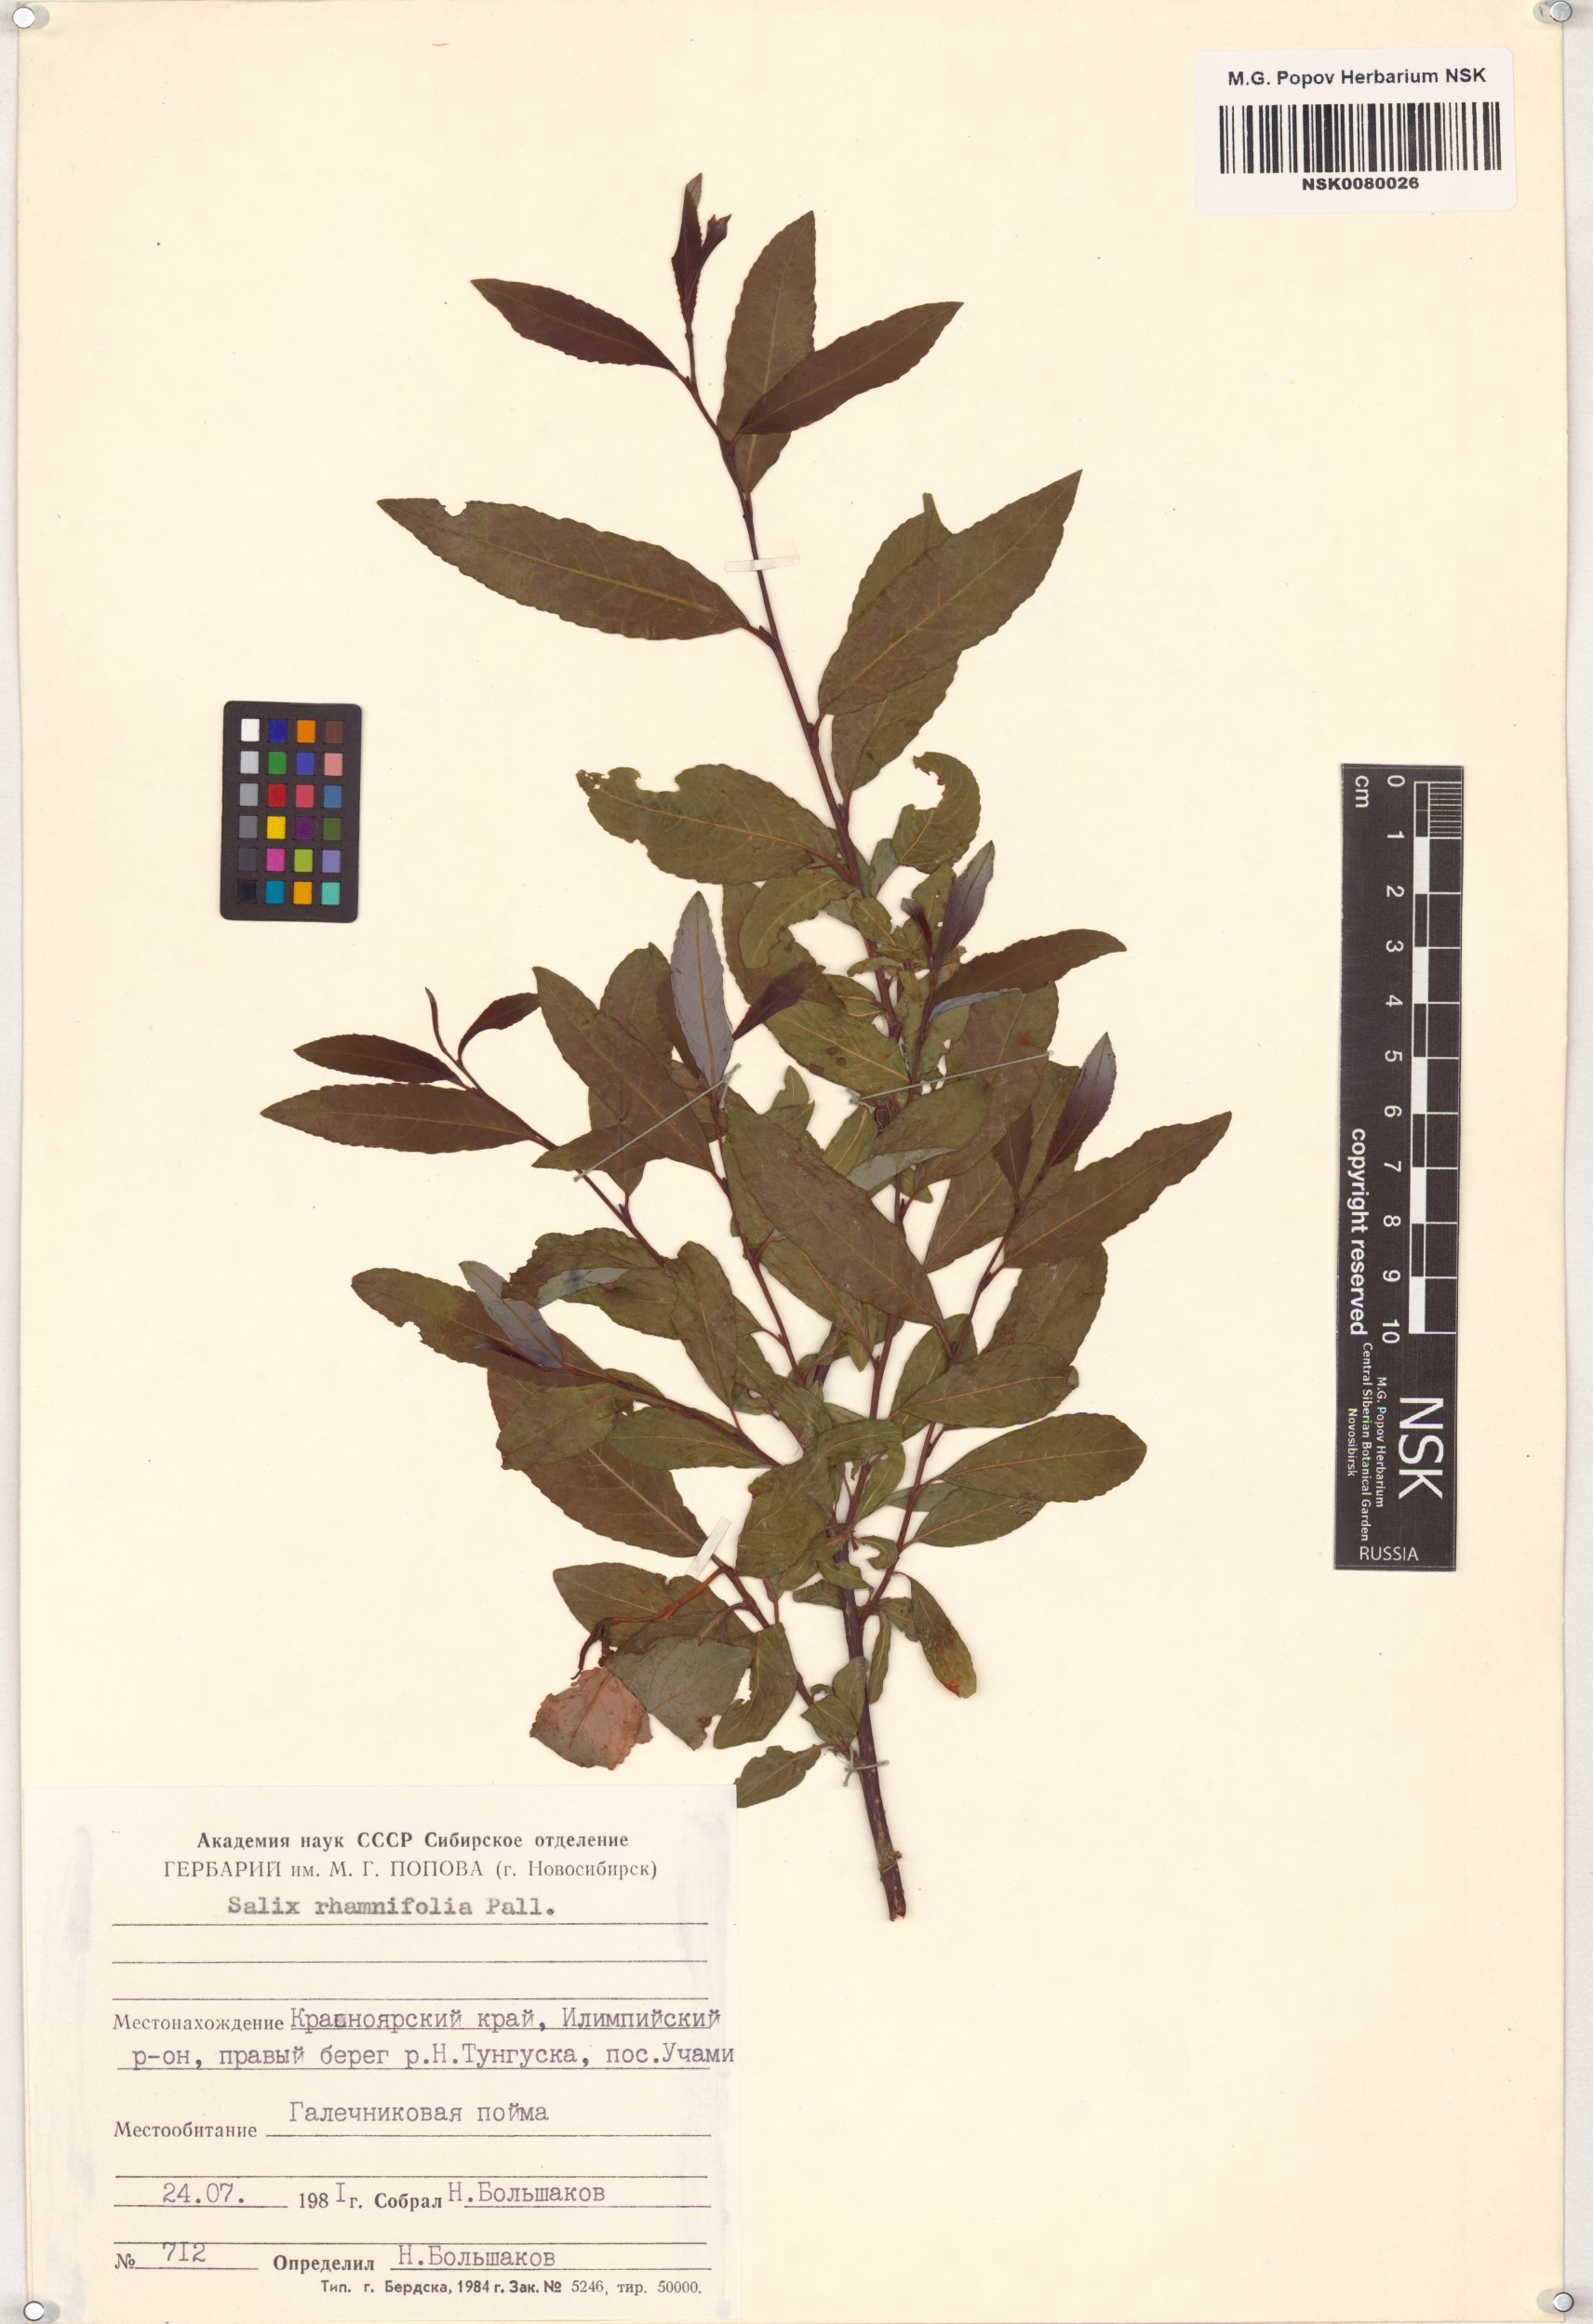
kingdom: Plantae
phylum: Tracheophyta
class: Magnoliopsida
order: Malpighiales
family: Salicaceae
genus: Salix
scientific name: Salix rhamnifolia
